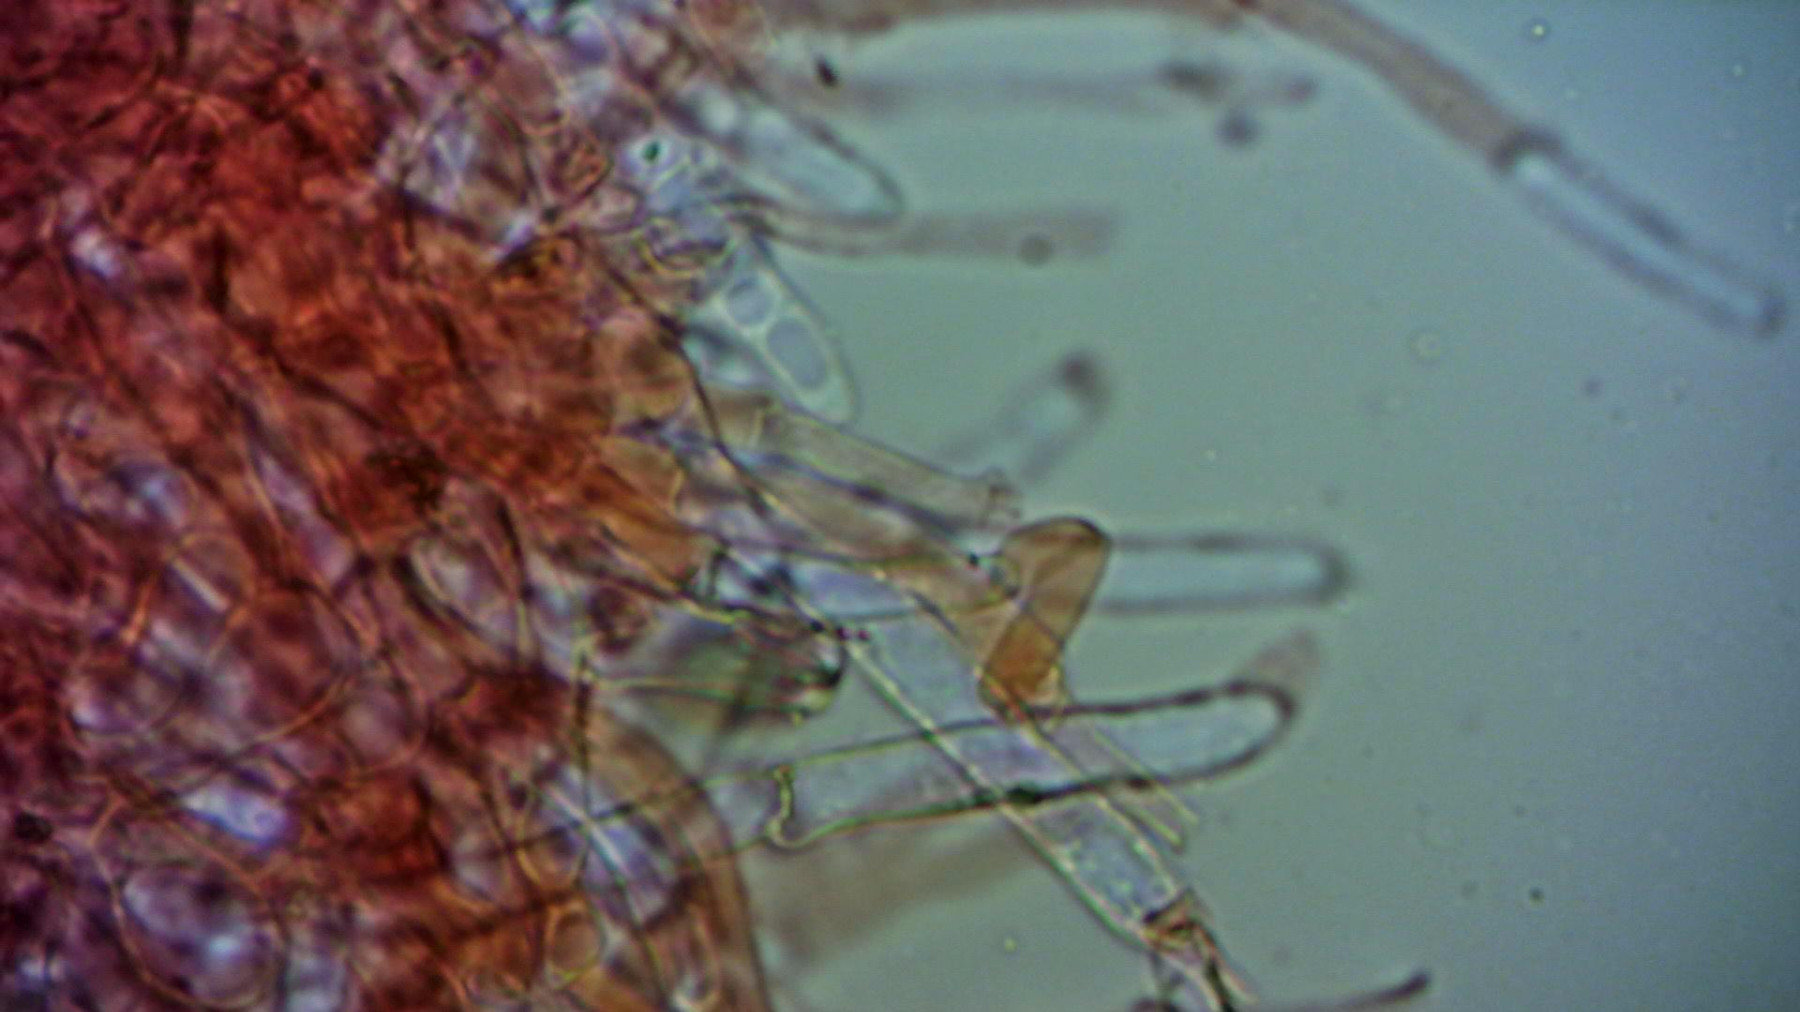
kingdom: Fungi
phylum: Basidiomycota
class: Agaricomycetes
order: Agaricales
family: Strophariaceae
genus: Agrocybe
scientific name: Agrocybe pediades
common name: almindelig agerhat
